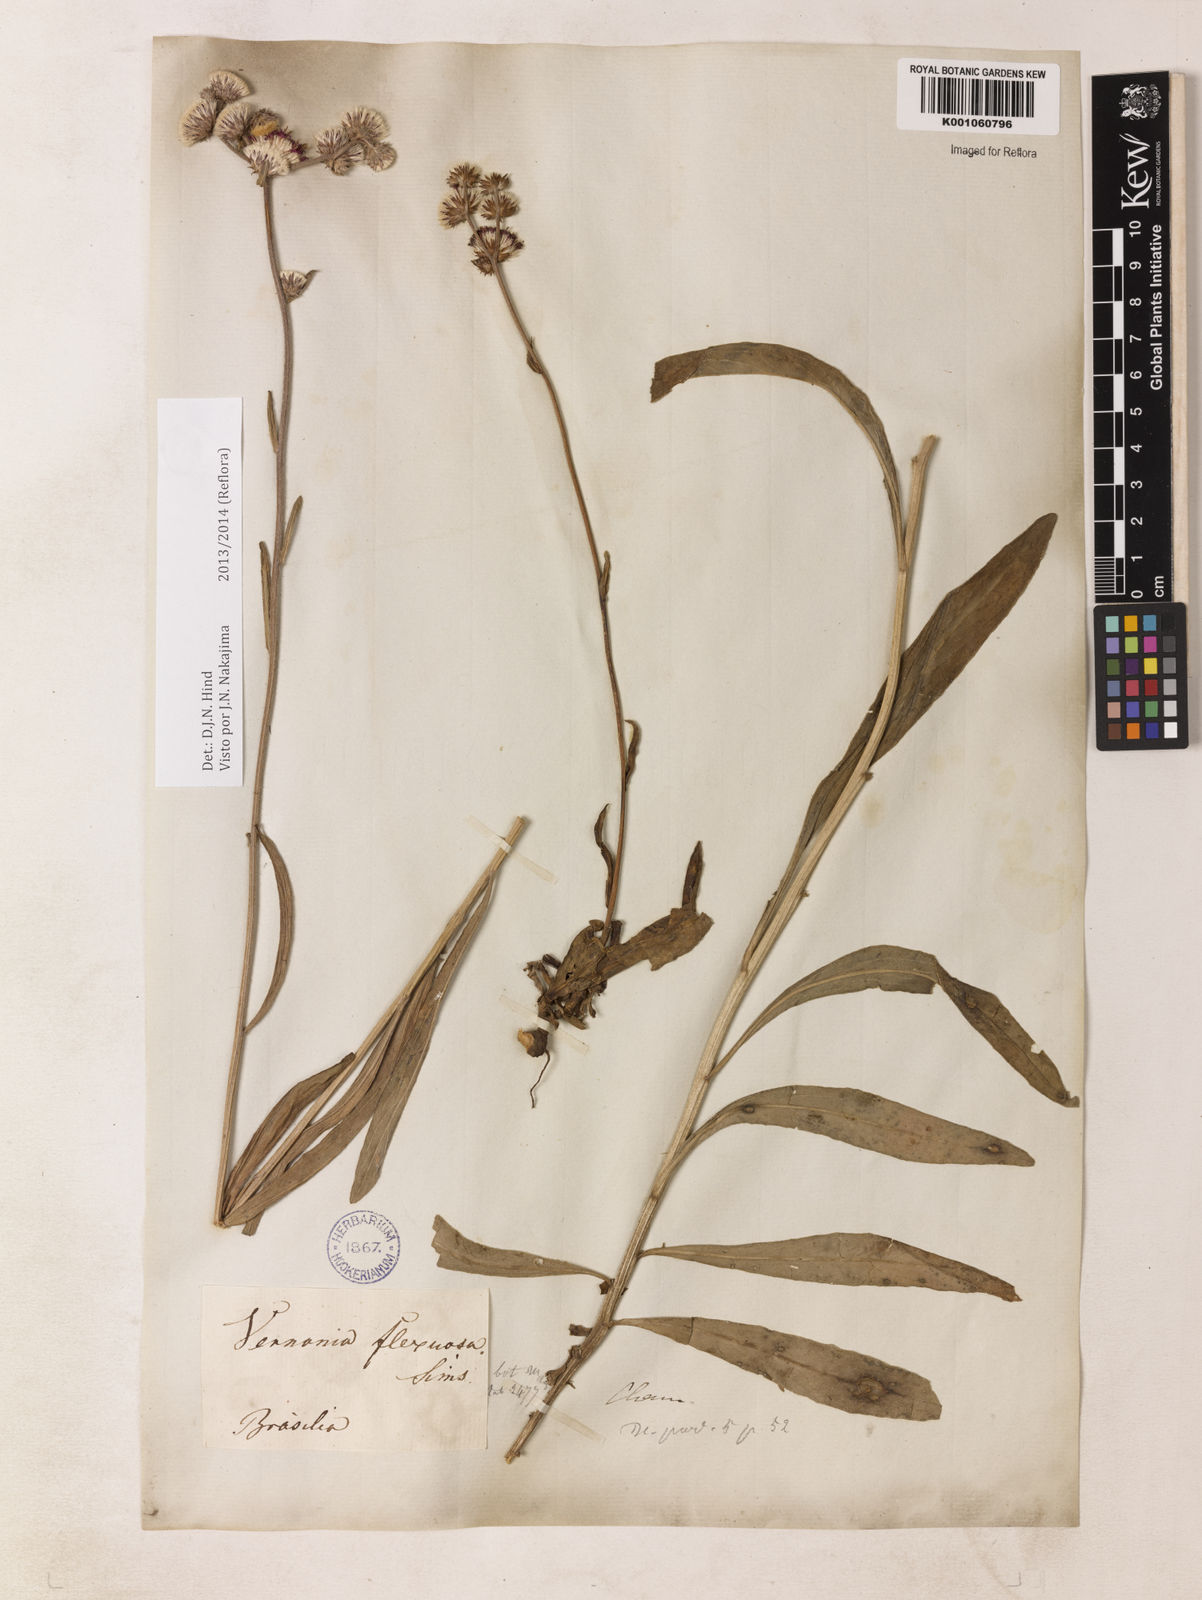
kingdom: Plantae
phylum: Tracheophyta
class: Magnoliopsida
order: Asterales
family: Asteraceae
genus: Chrysolaena
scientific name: Chrysolaena flexuosa
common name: Zig-zag vernonia
